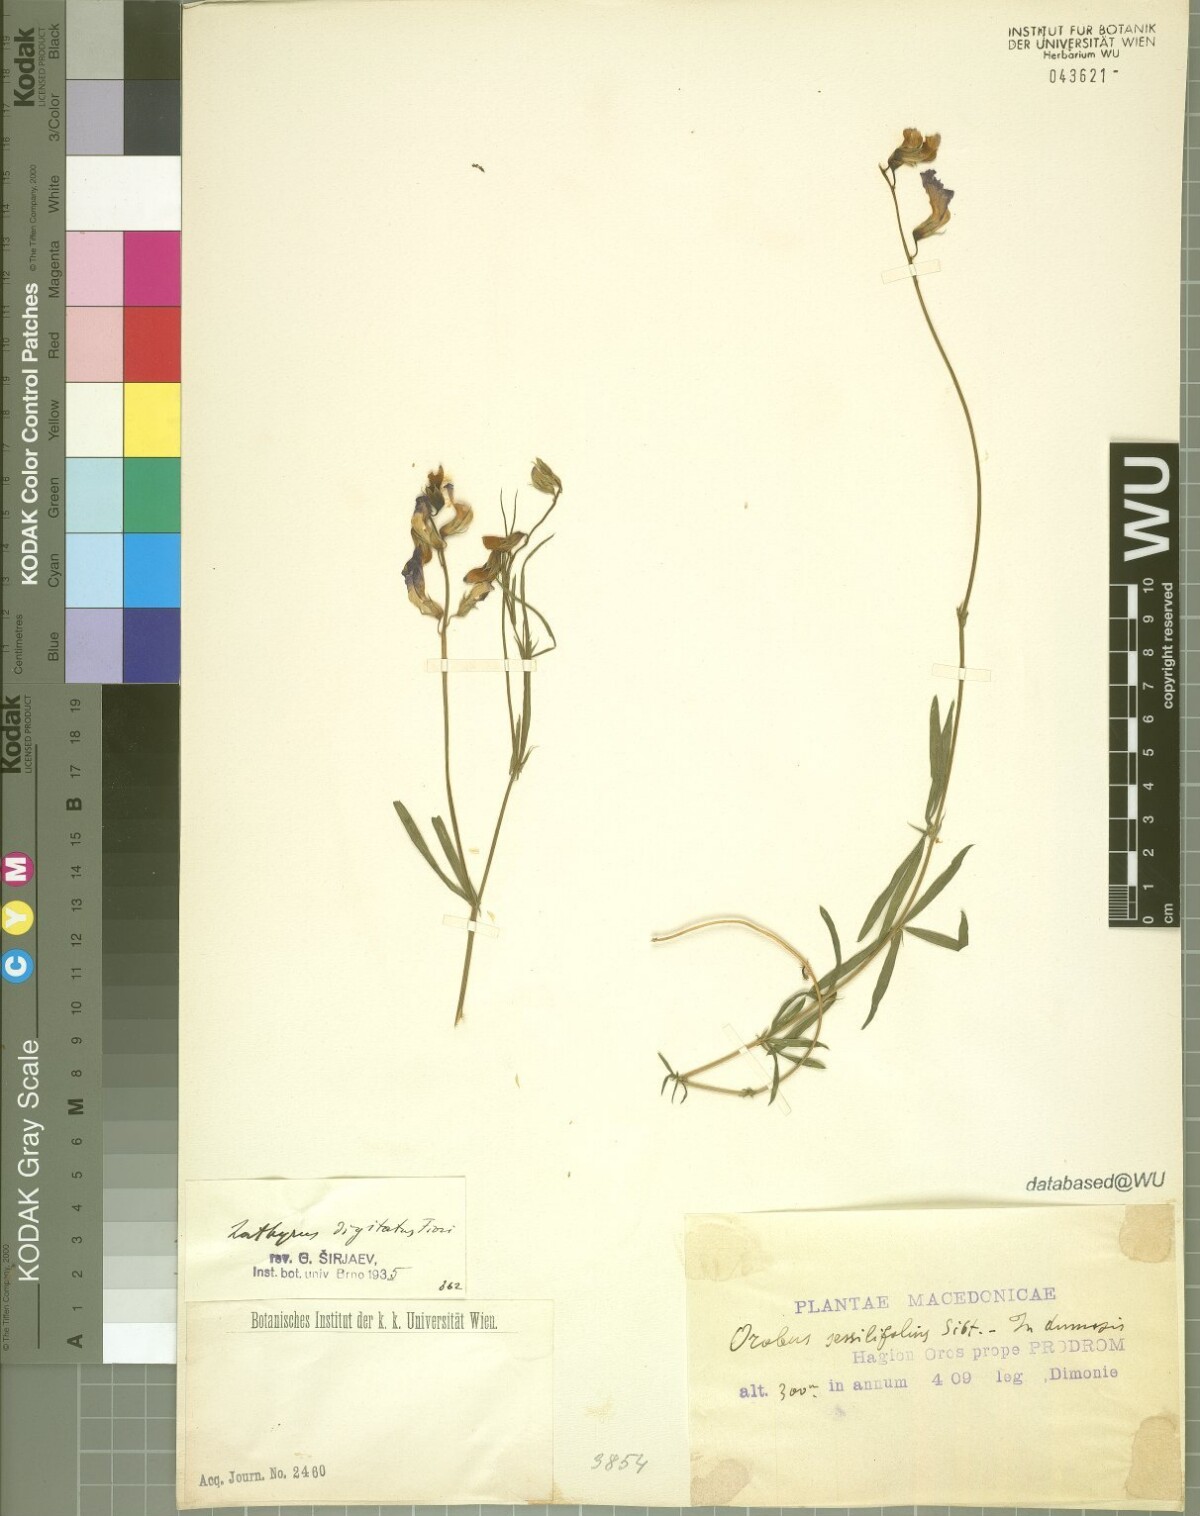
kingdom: Plantae
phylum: Tracheophyta
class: Magnoliopsida
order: Fabales
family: Fabaceae
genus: Lathyrus
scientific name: Lathyrus digitatus
